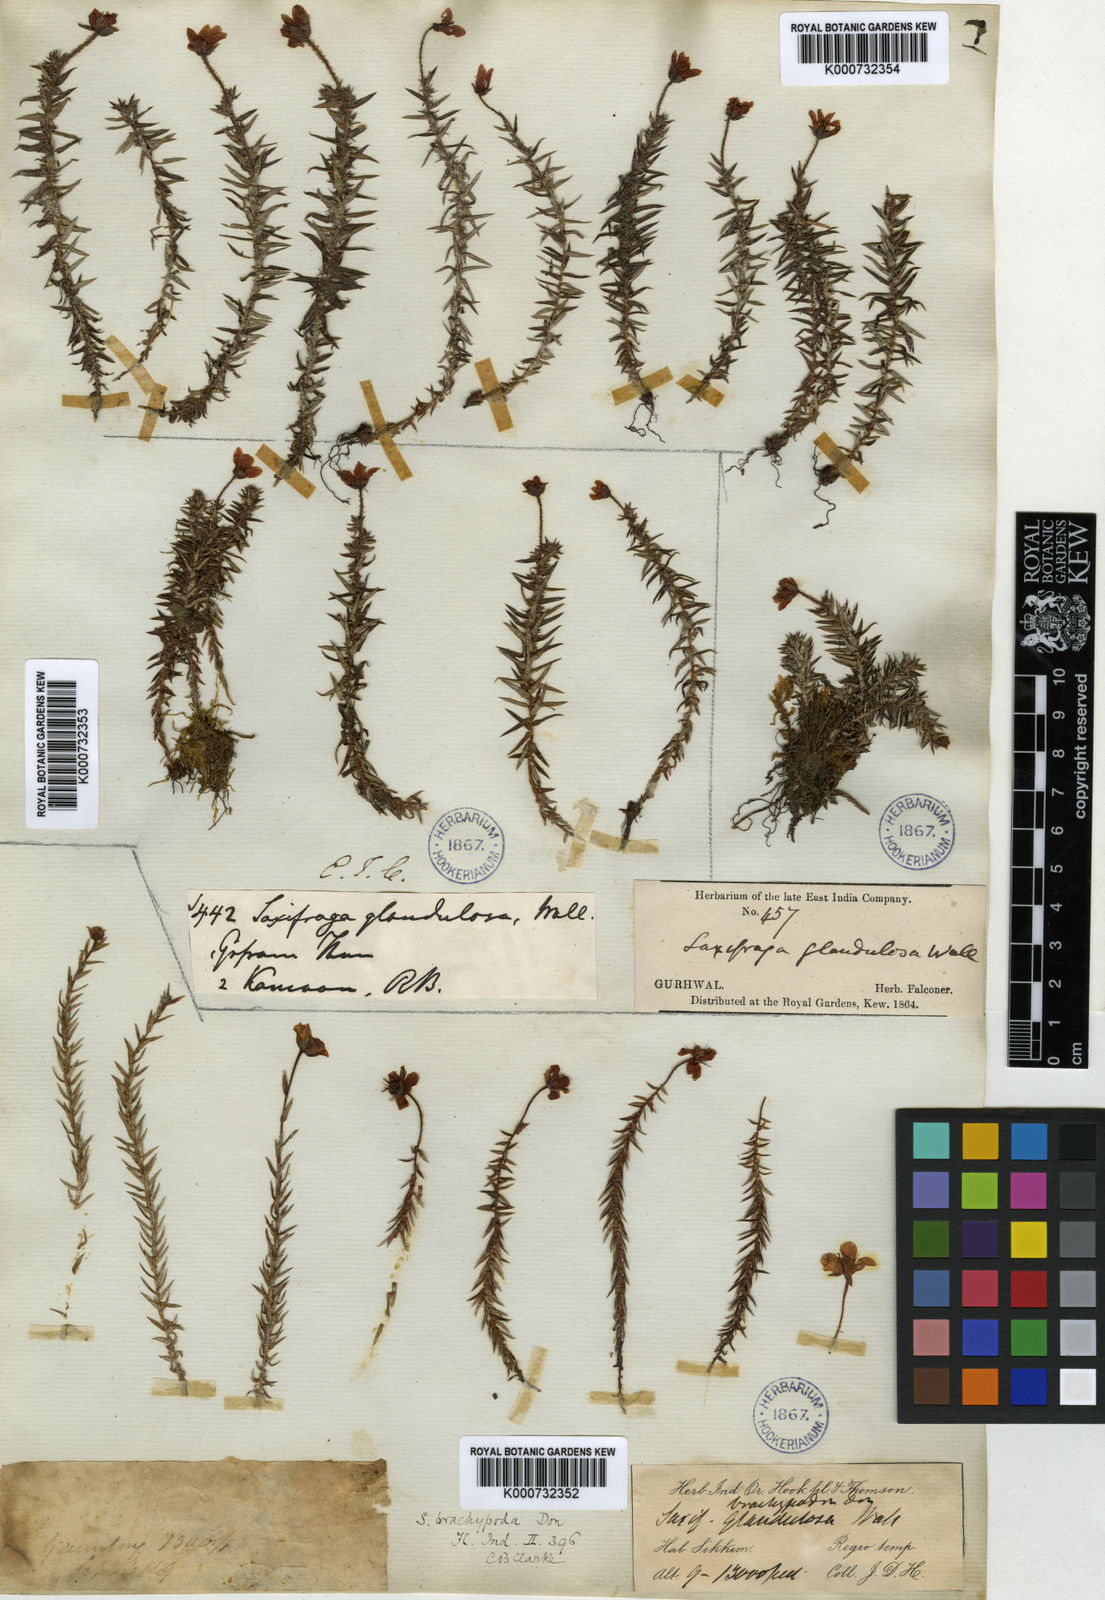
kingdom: Plantae
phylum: Tracheophyta
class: Magnoliopsida
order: Saxifragales
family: Saxifragaceae
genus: Saxifraga
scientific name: Saxifraga brachypoda
